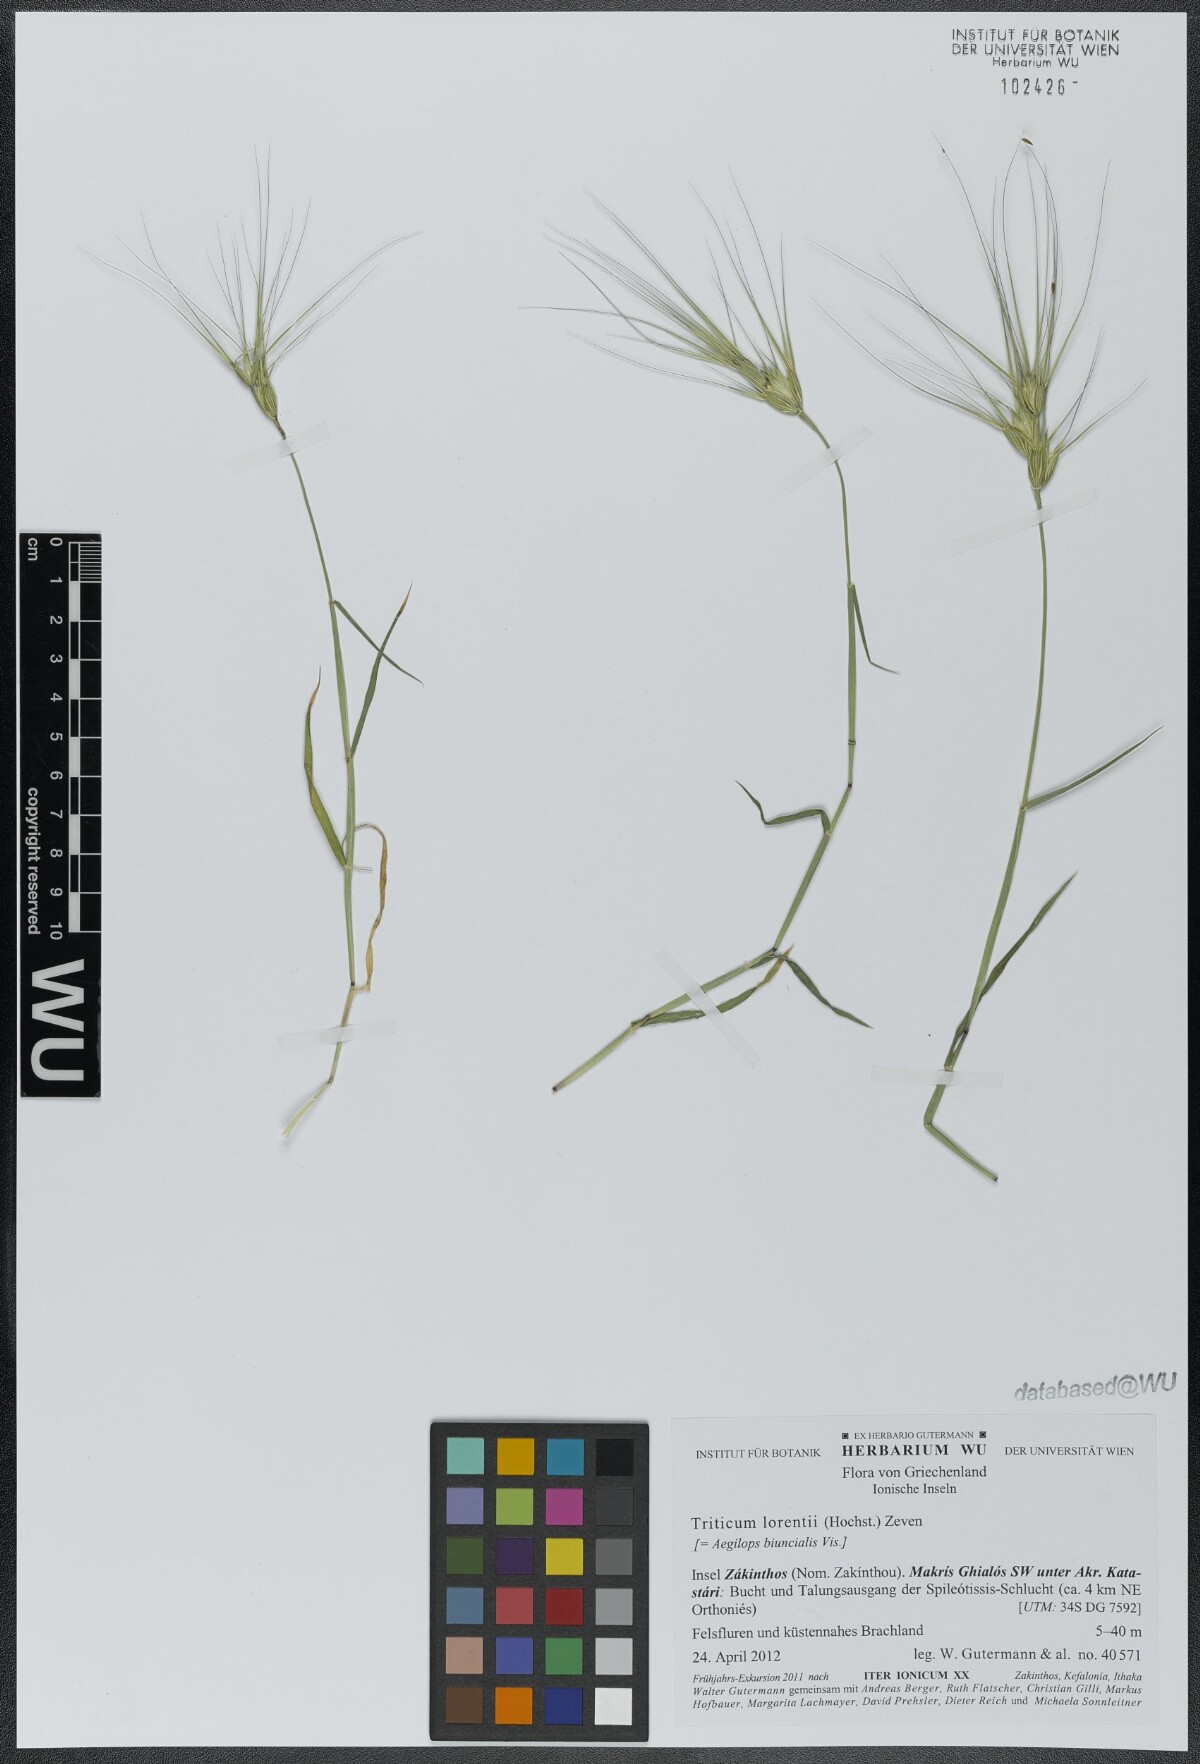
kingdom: Plantae
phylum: Tracheophyta
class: Liliopsida
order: Poales
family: Poaceae
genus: Aegilops
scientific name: Aegilops biuncialis
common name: Mediterranean aegilops
